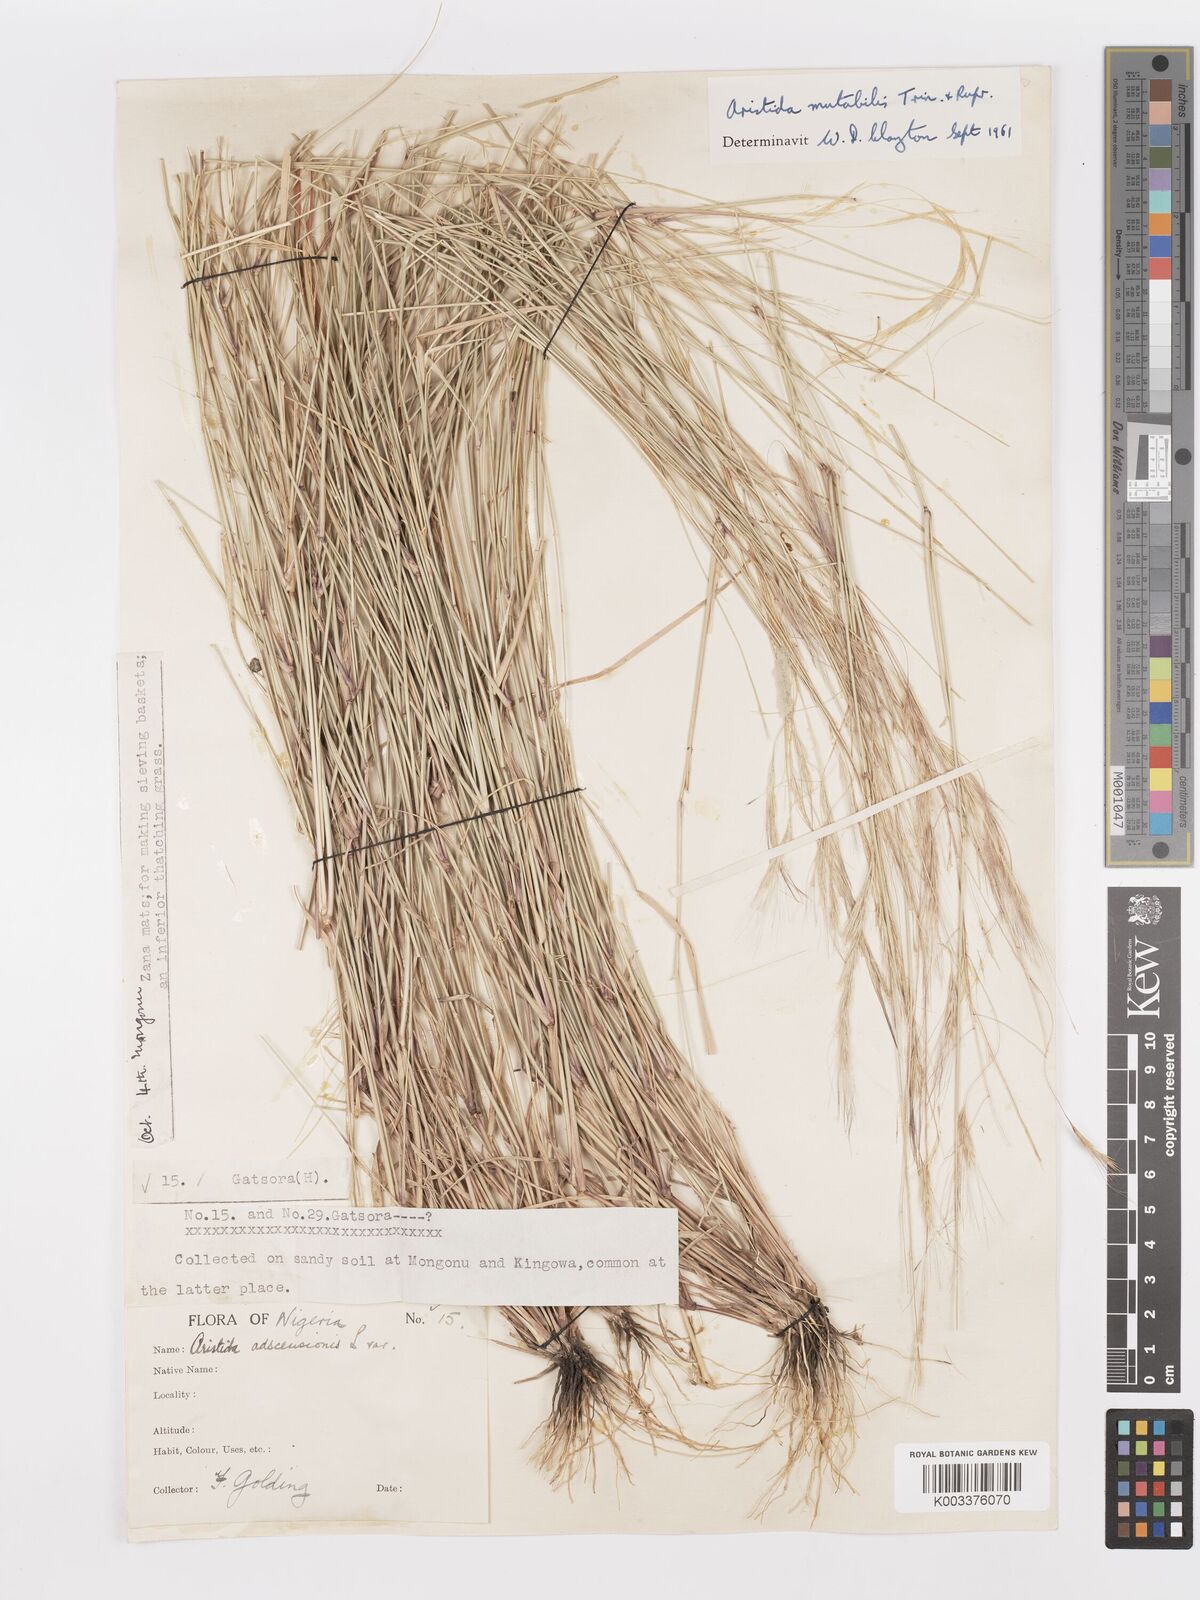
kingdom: Plantae
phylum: Tracheophyta
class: Liliopsida
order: Poales
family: Poaceae
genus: Aristida
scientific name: Aristida mutabilis
